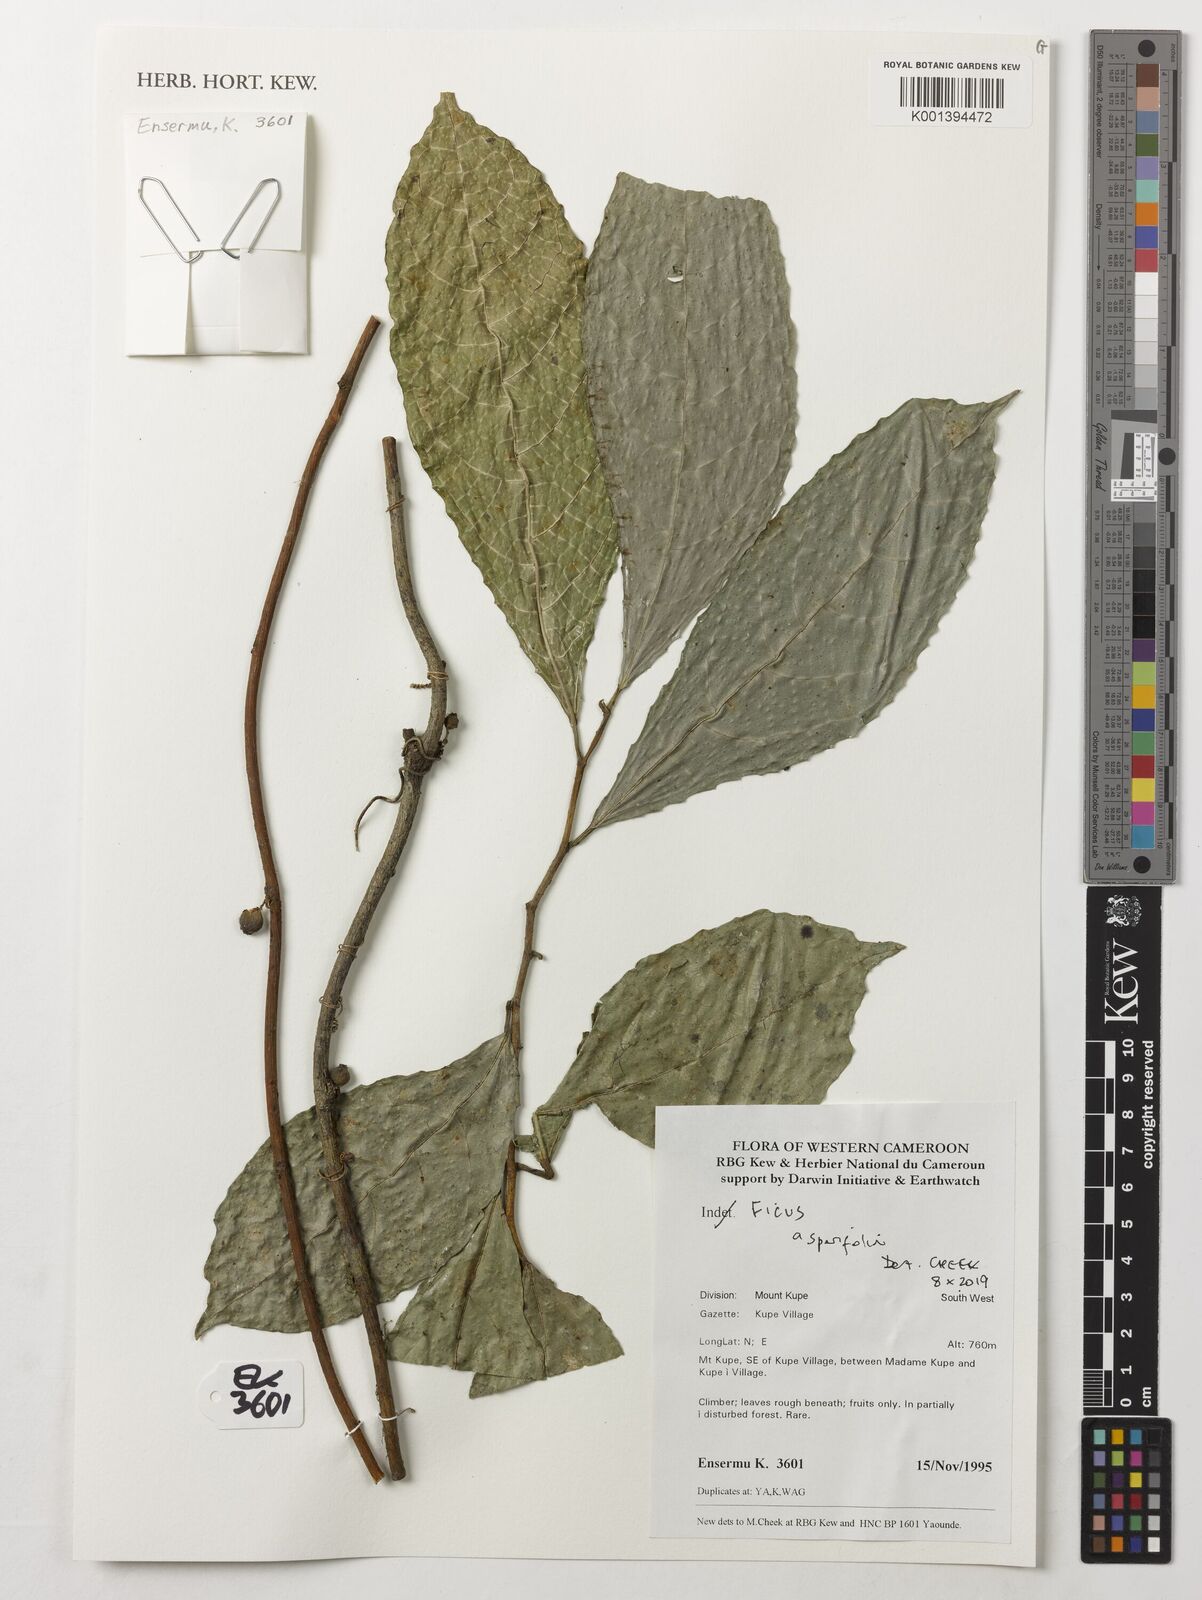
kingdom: Plantae
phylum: Tracheophyta
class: Magnoliopsida
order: Rosales
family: Moraceae
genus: Ficus
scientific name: Ficus asperifolia
